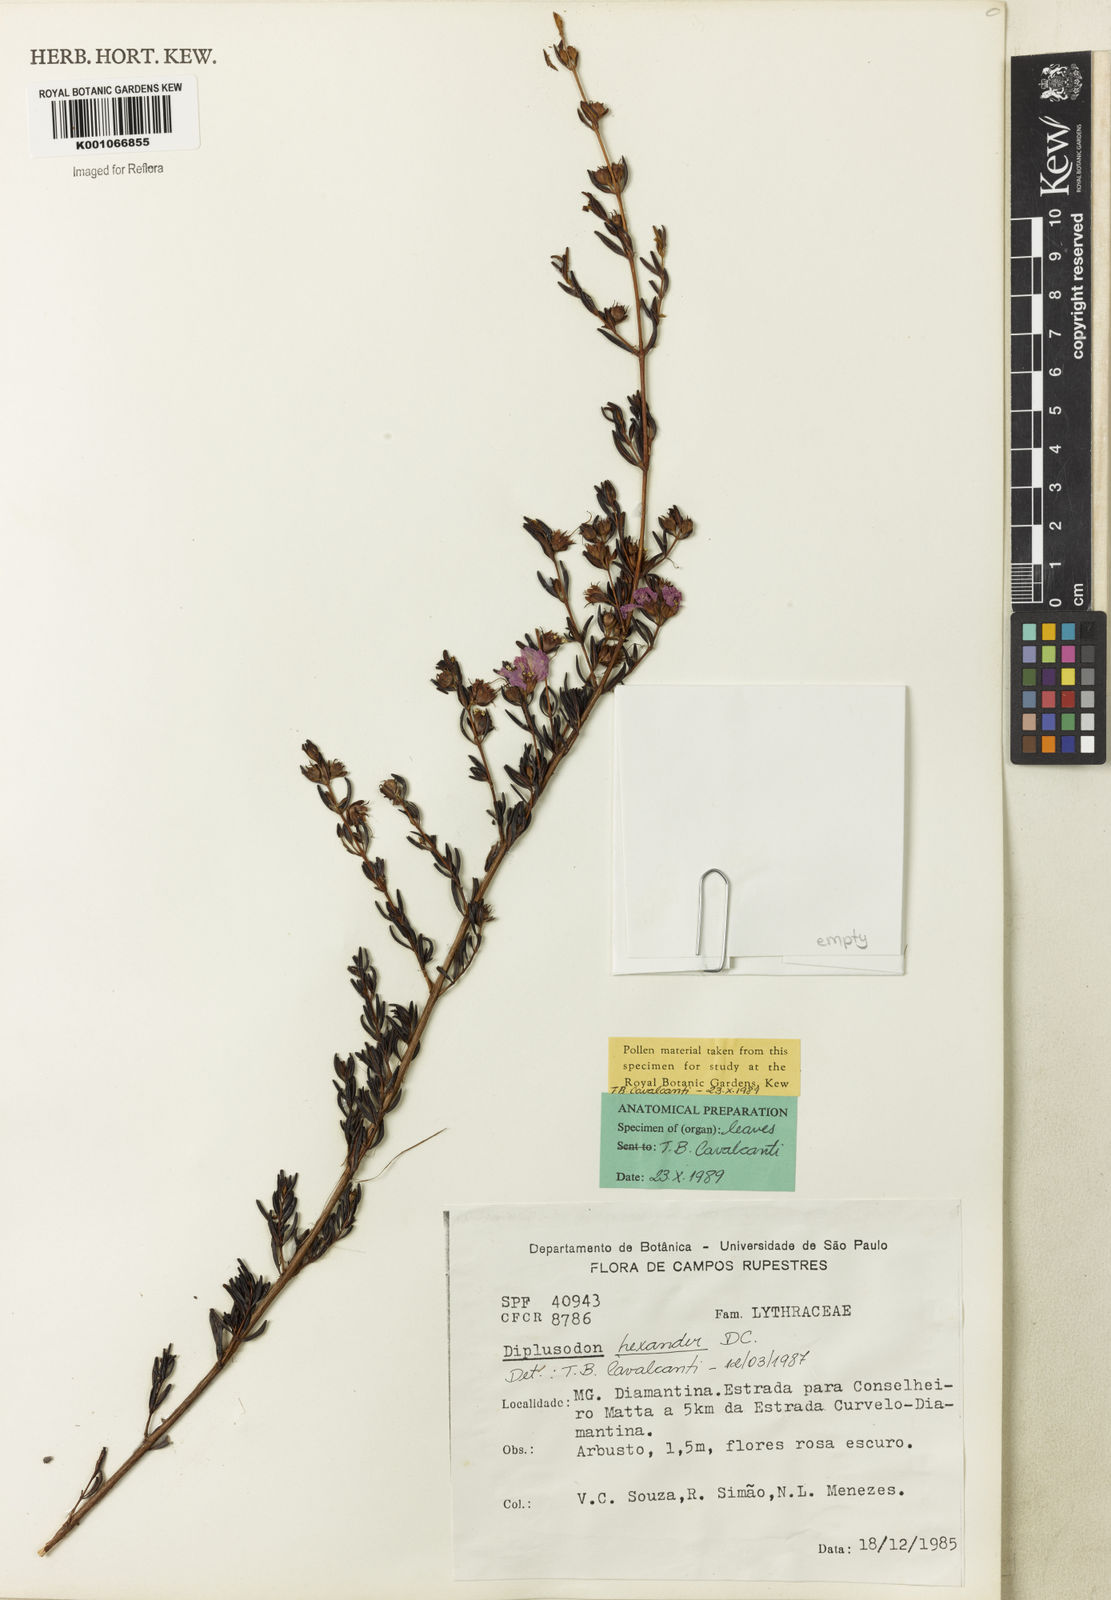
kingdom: Plantae
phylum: Tracheophyta
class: Magnoliopsida
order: Myrtales
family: Lythraceae
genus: Diplusodon
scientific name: Diplusodon hexander
